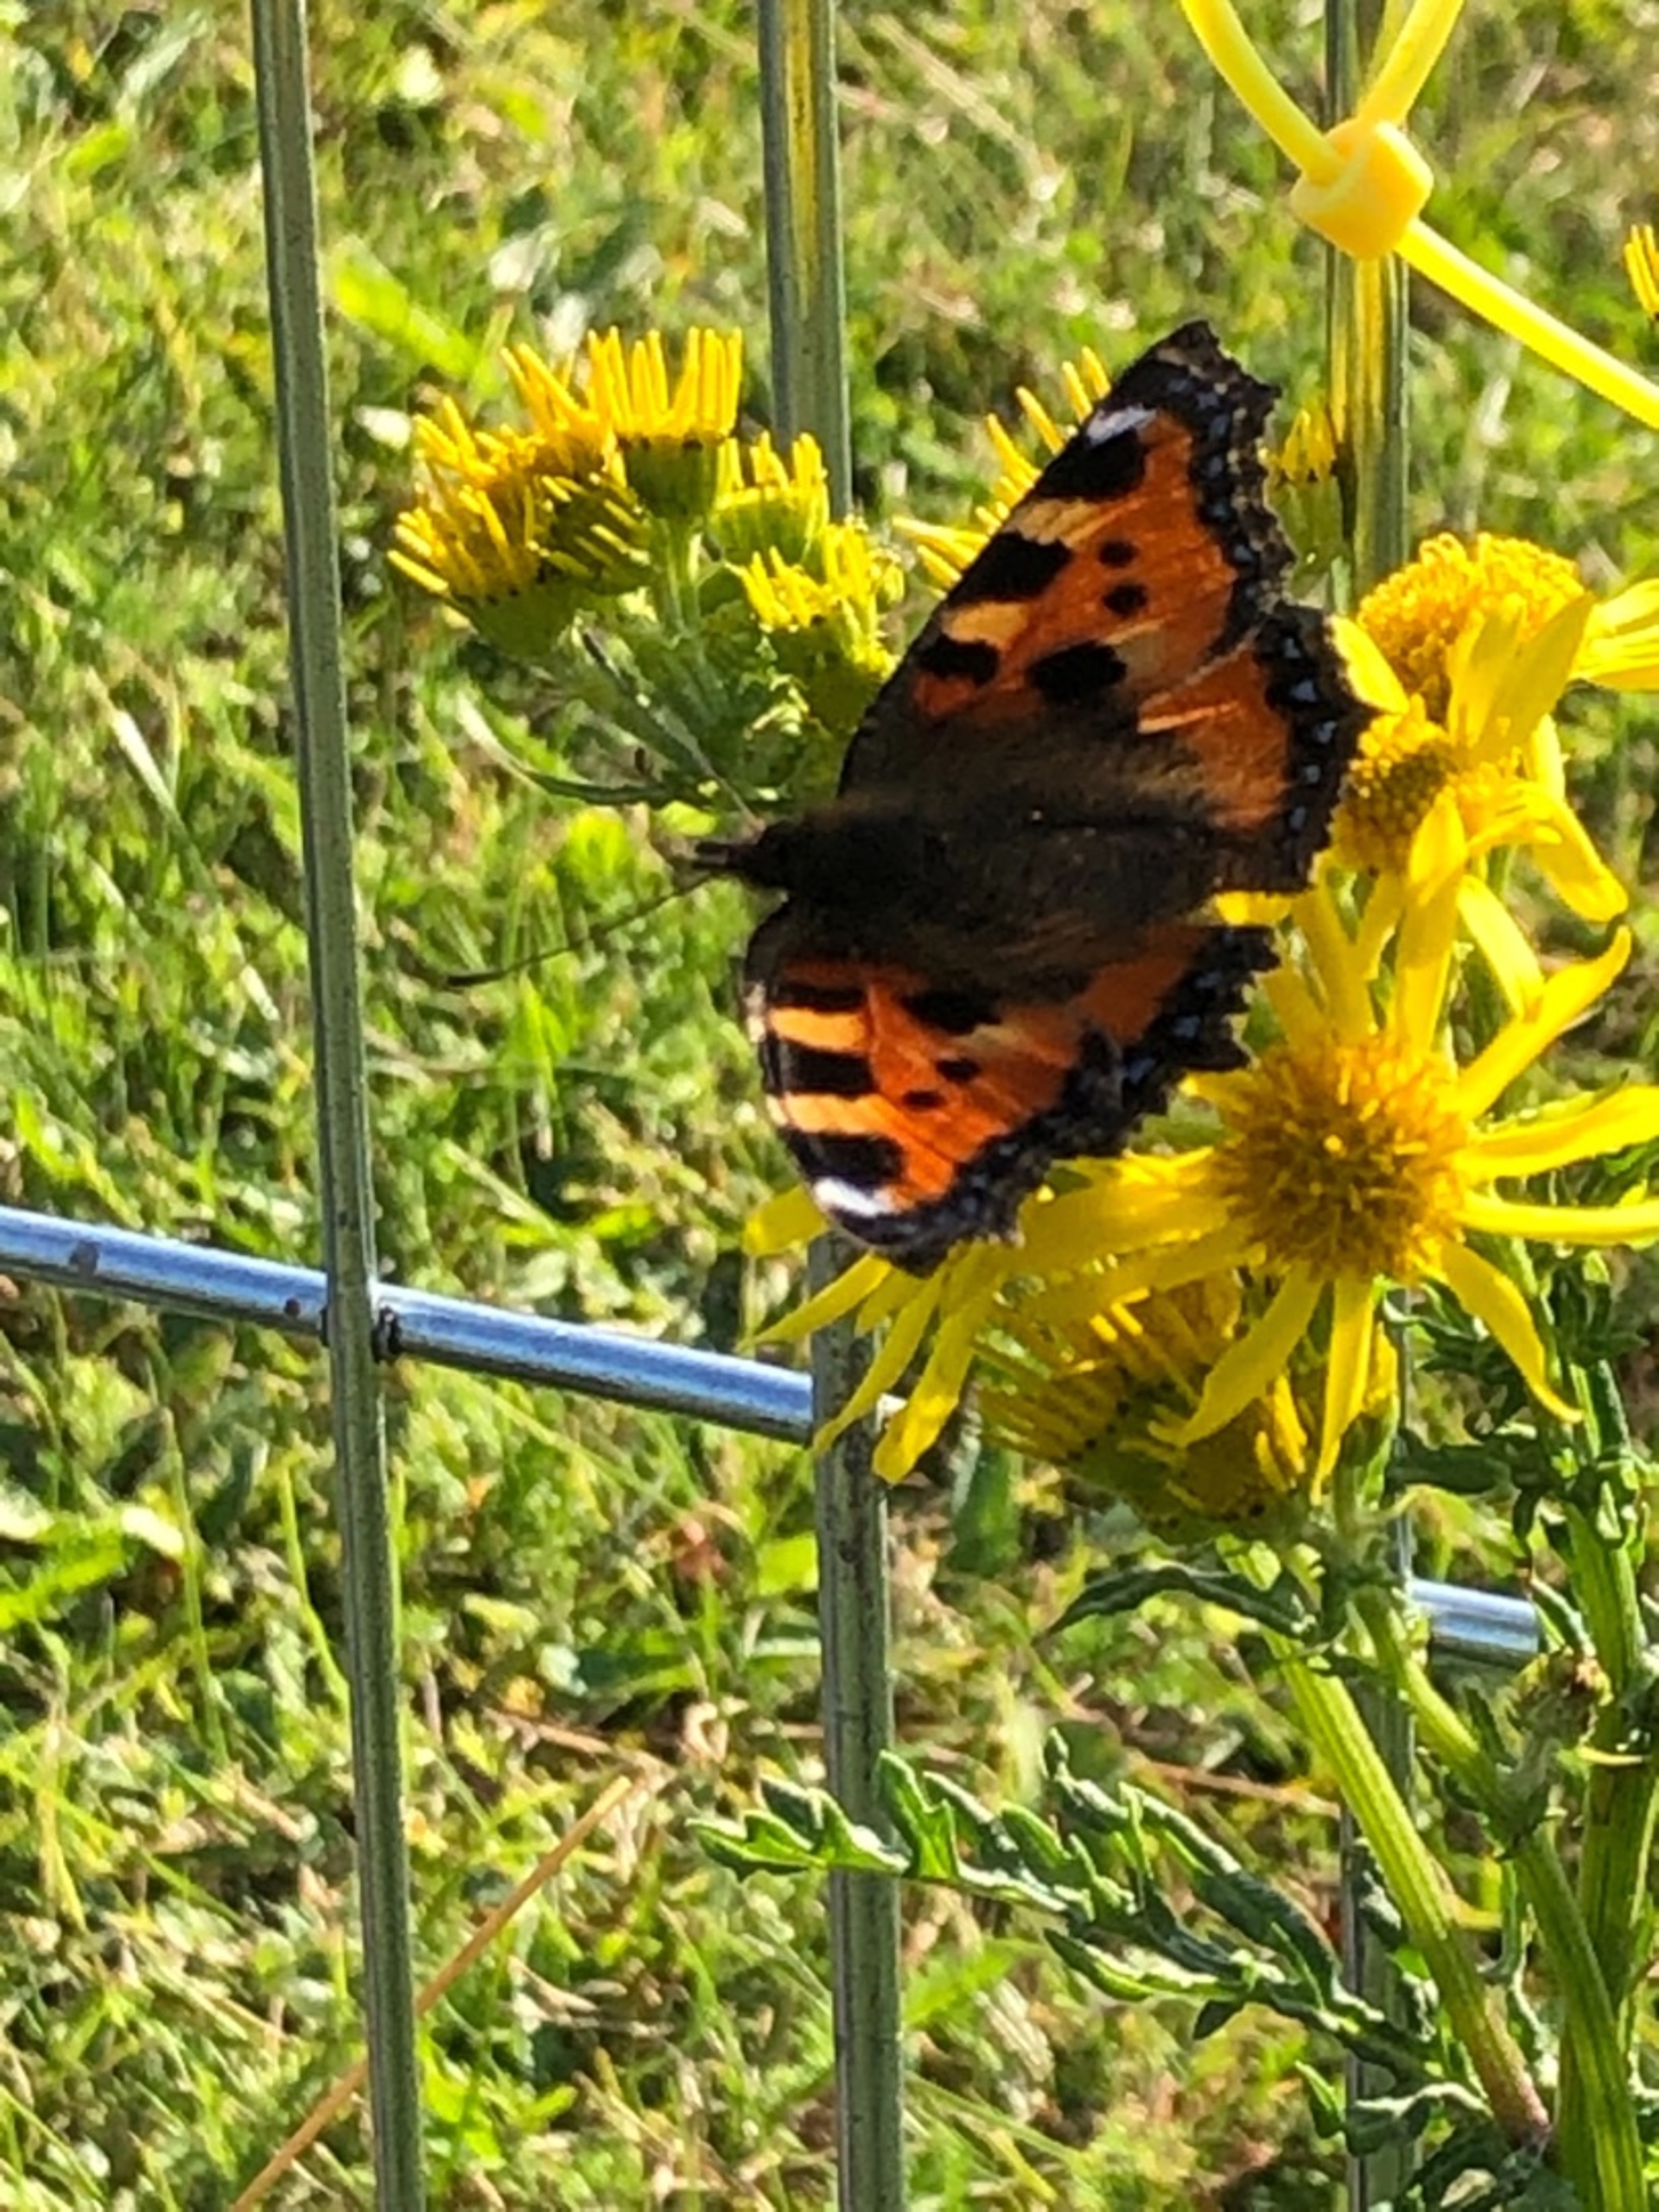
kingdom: Animalia
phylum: Arthropoda
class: Insecta
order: Lepidoptera
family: Nymphalidae
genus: Aglais
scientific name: Aglais urticae
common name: Nældens takvinge
